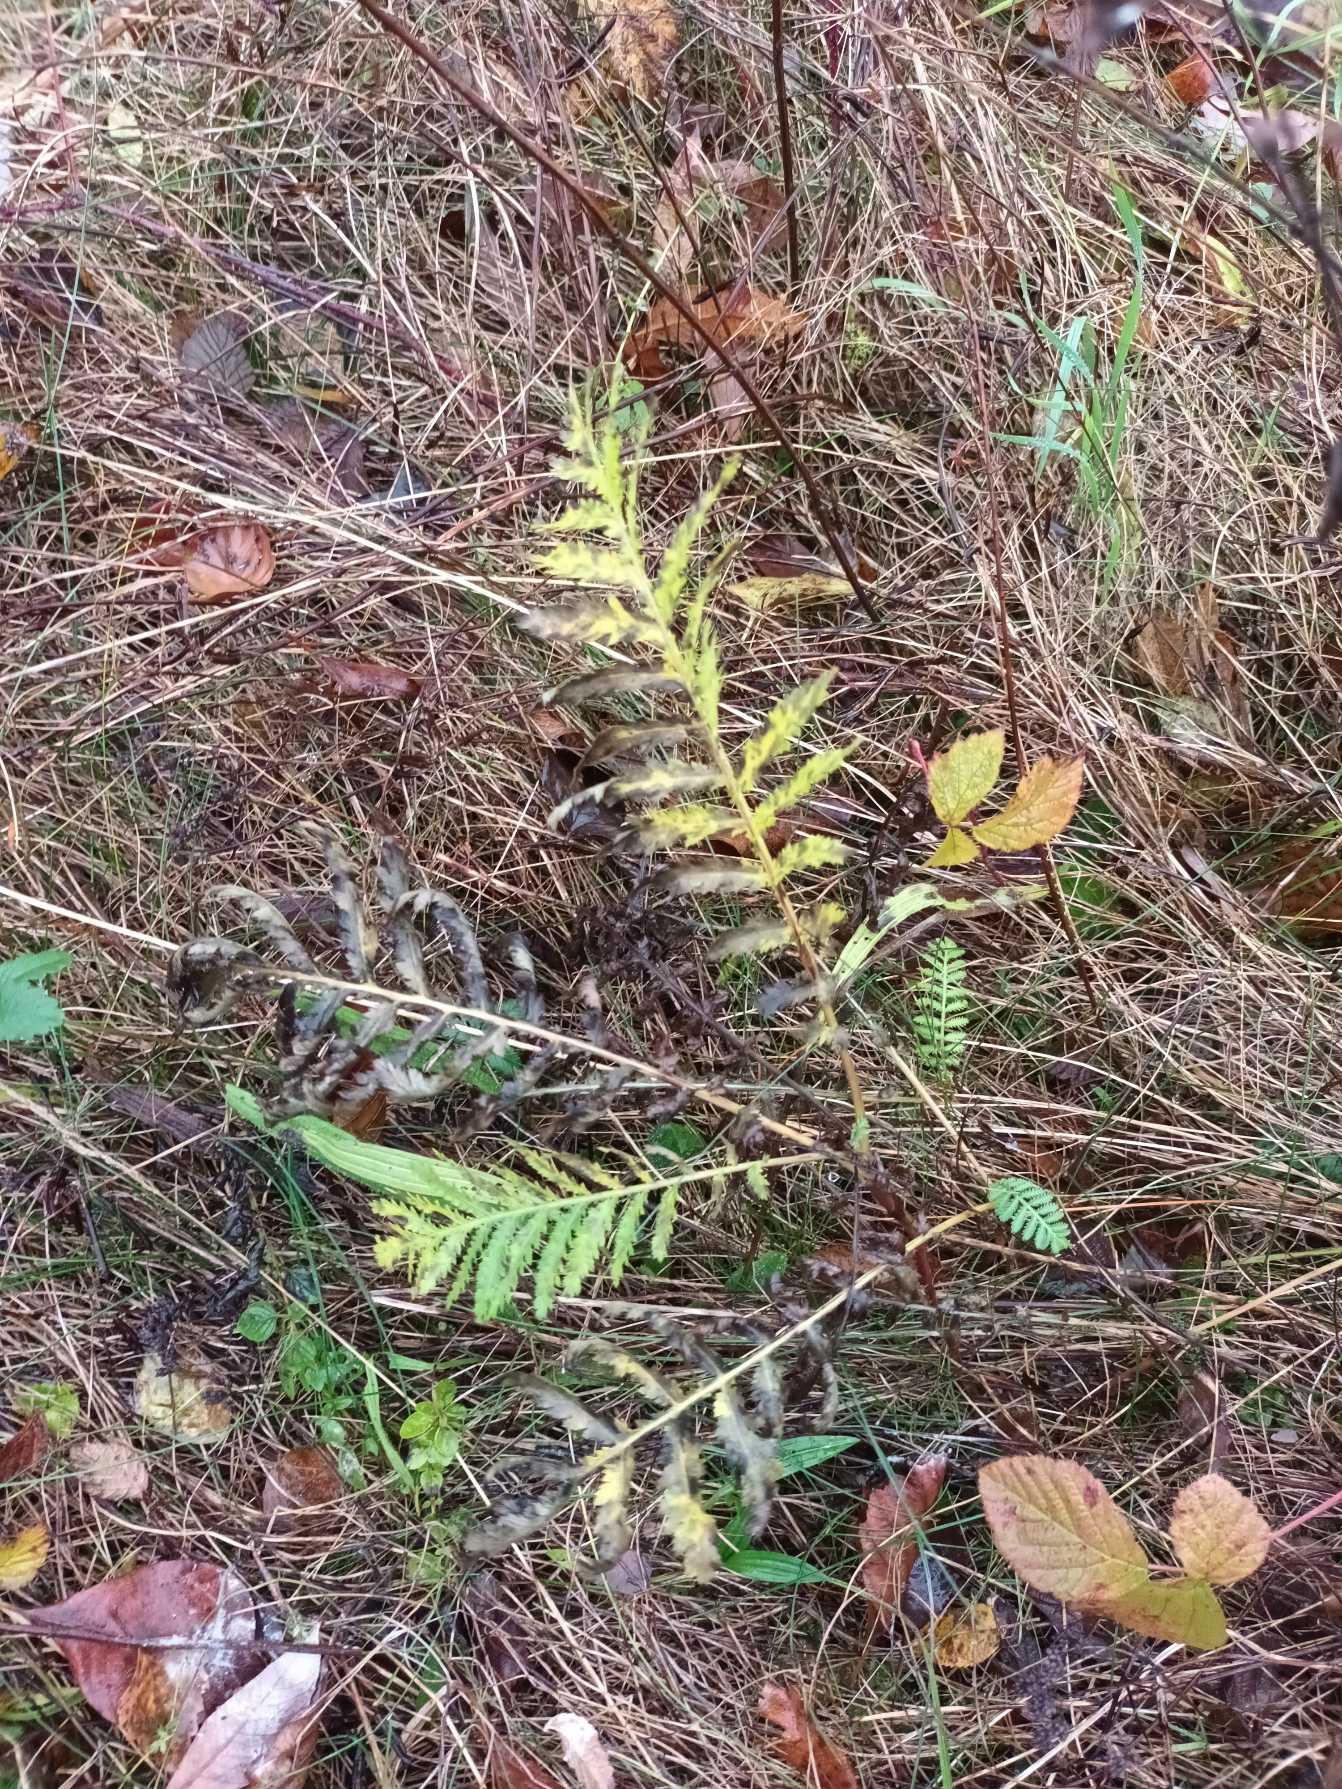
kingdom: Plantae
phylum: Tracheophyta
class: Magnoliopsida
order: Asterales
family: Asteraceae
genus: Tanacetum
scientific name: Tanacetum vulgare
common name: Rejnfan
